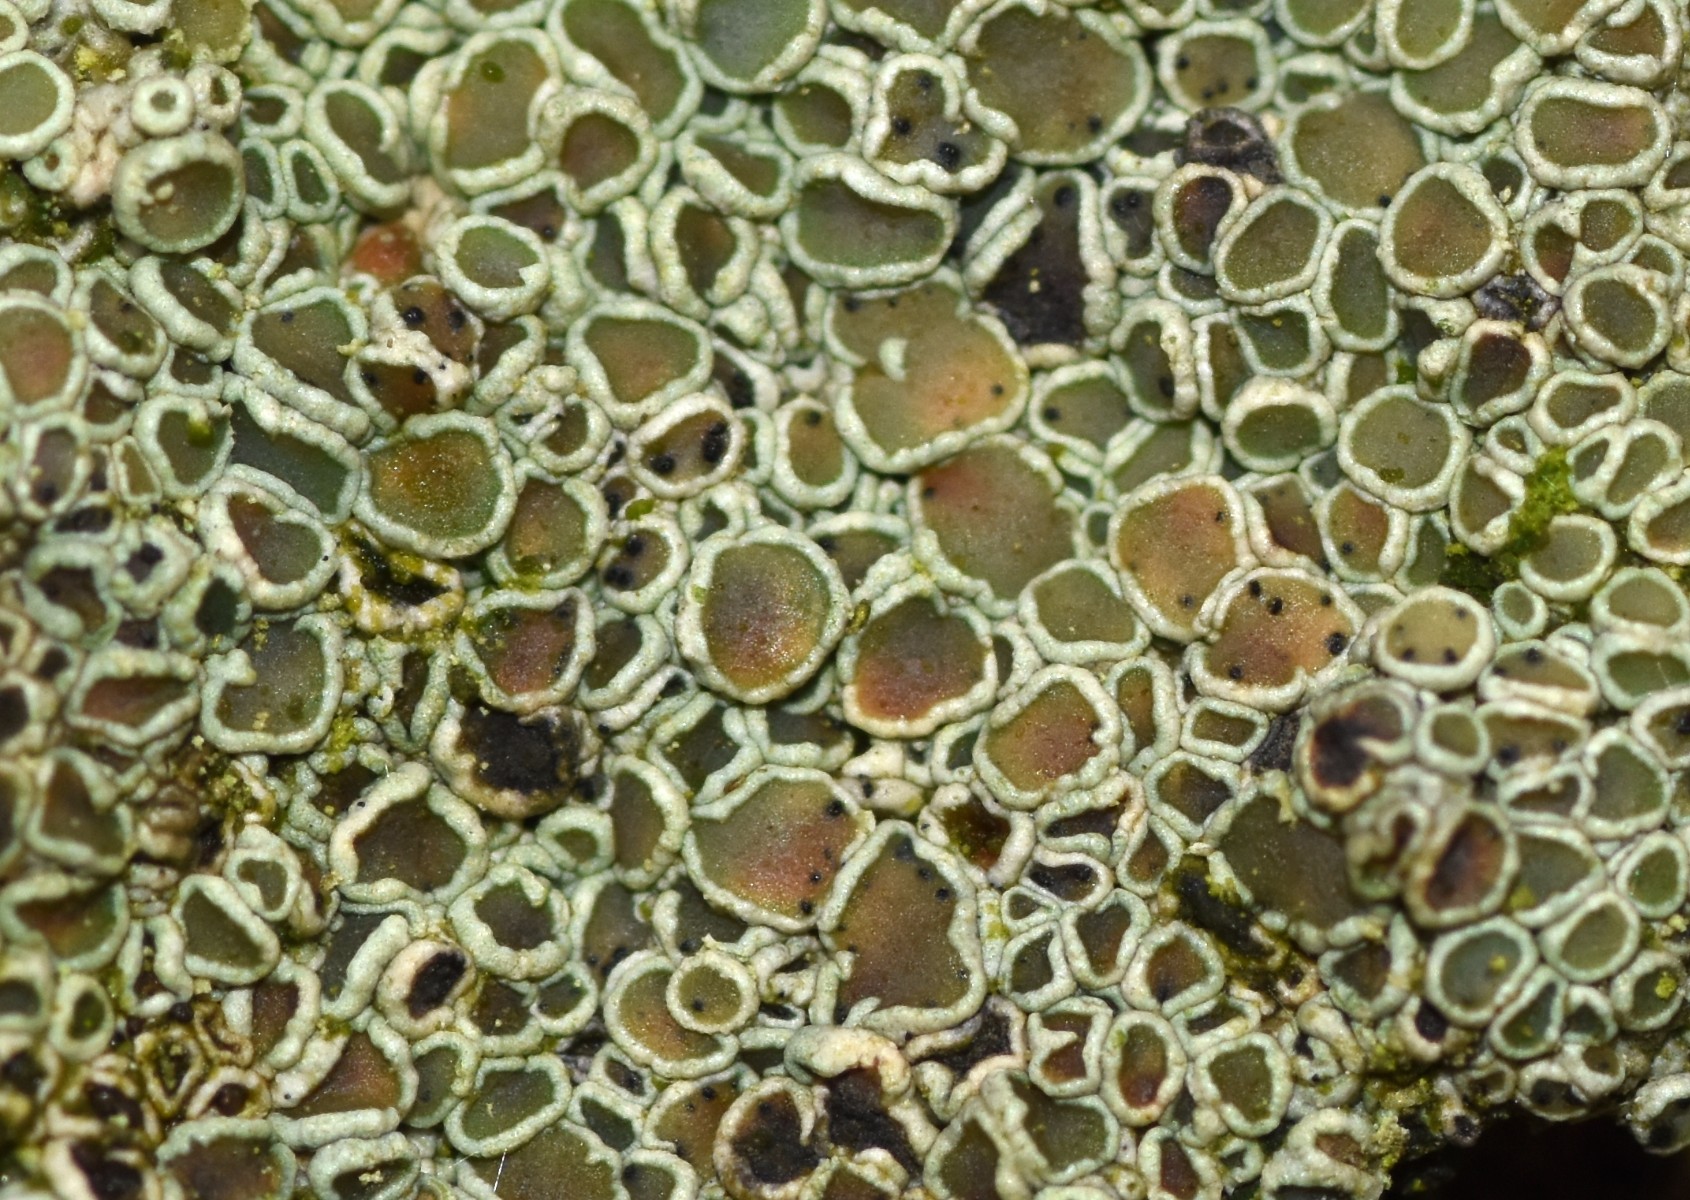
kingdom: Fungi
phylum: Ascomycota
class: Dothideomycetes
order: Pleosporales
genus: Vouauxiella
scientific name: Vouauxiella lichenicola
